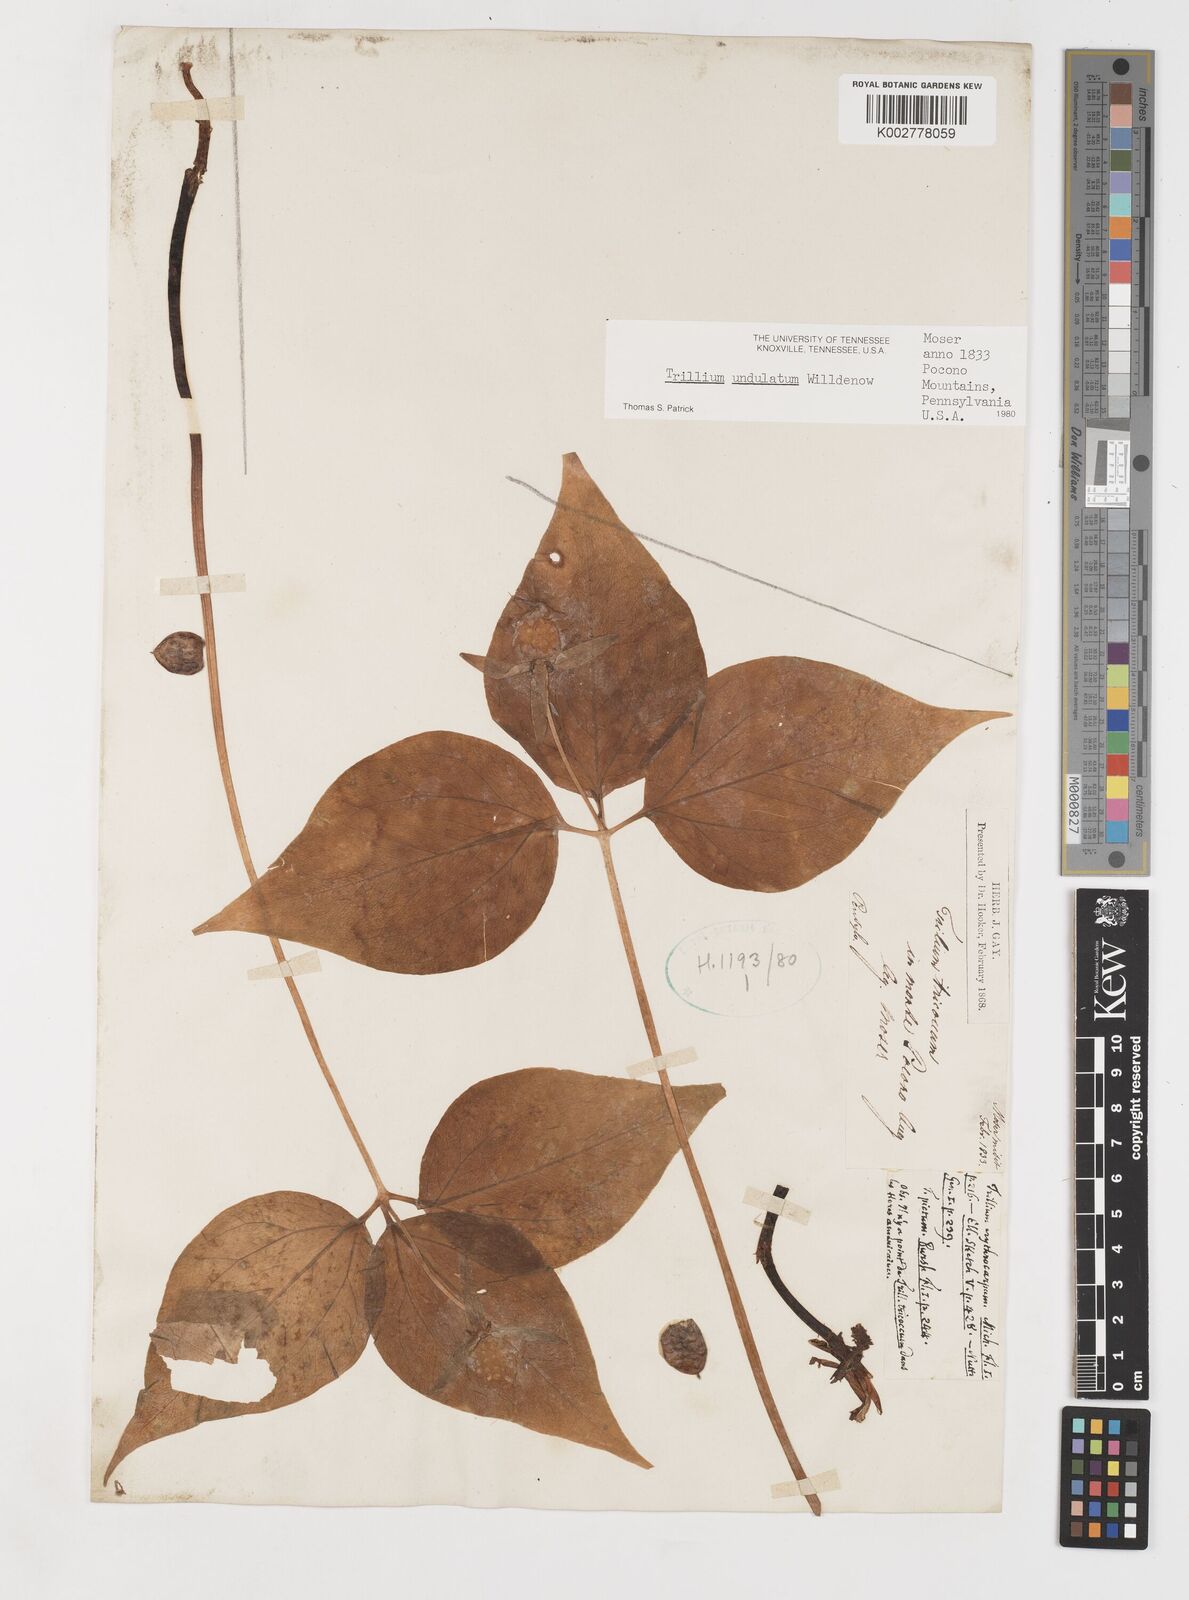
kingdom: Plantae
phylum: Tracheophyta
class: Liliopsida
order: Liliales
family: Melanthiaceae
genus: Trillium
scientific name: Trillium undulatum
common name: Paint trillium
